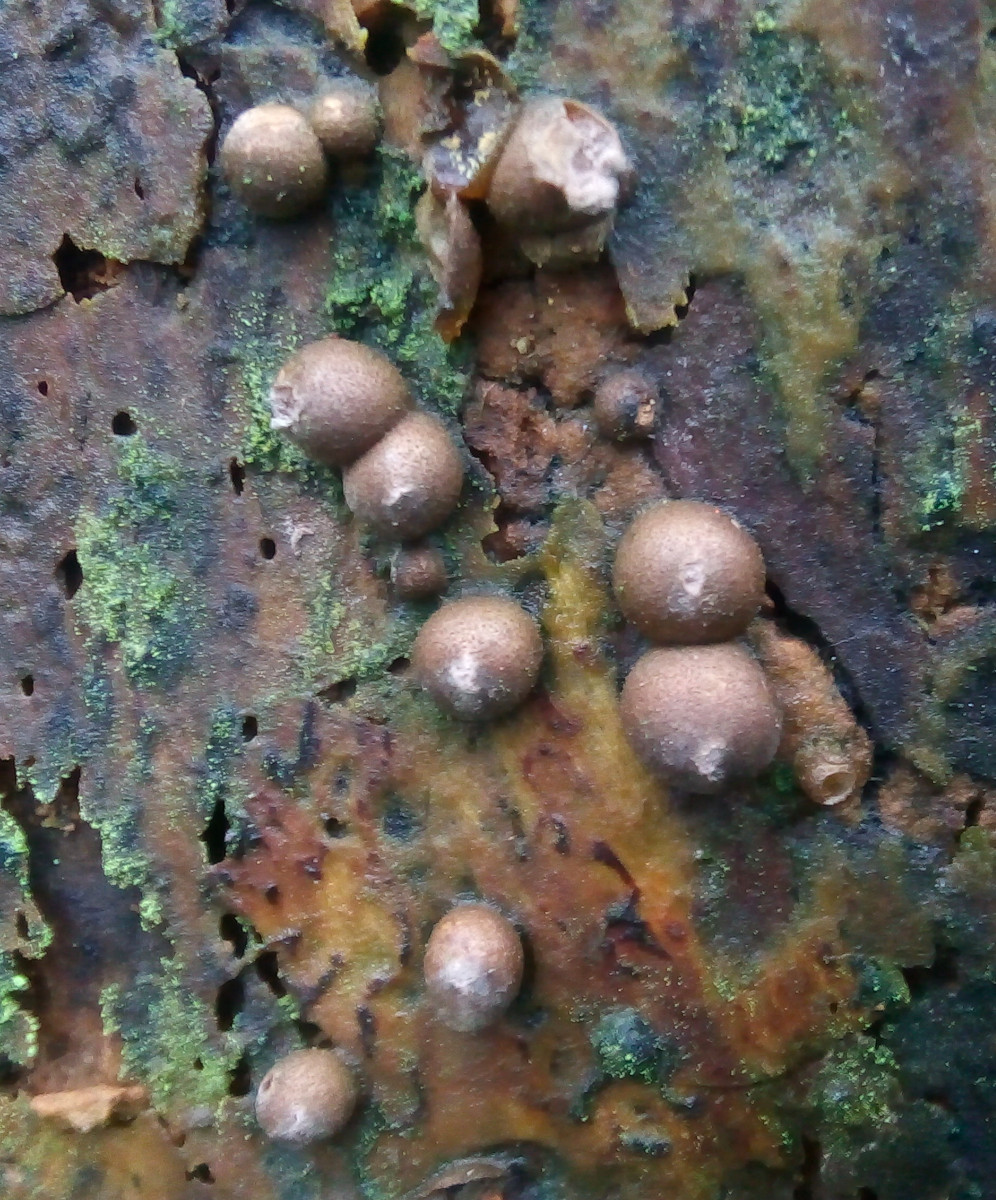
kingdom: Protozoa
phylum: Mycetozoa
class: Myxomycetes
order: Cribrariales
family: Tubiferaceae
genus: Lycogala
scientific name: Lycogala epidendrum
